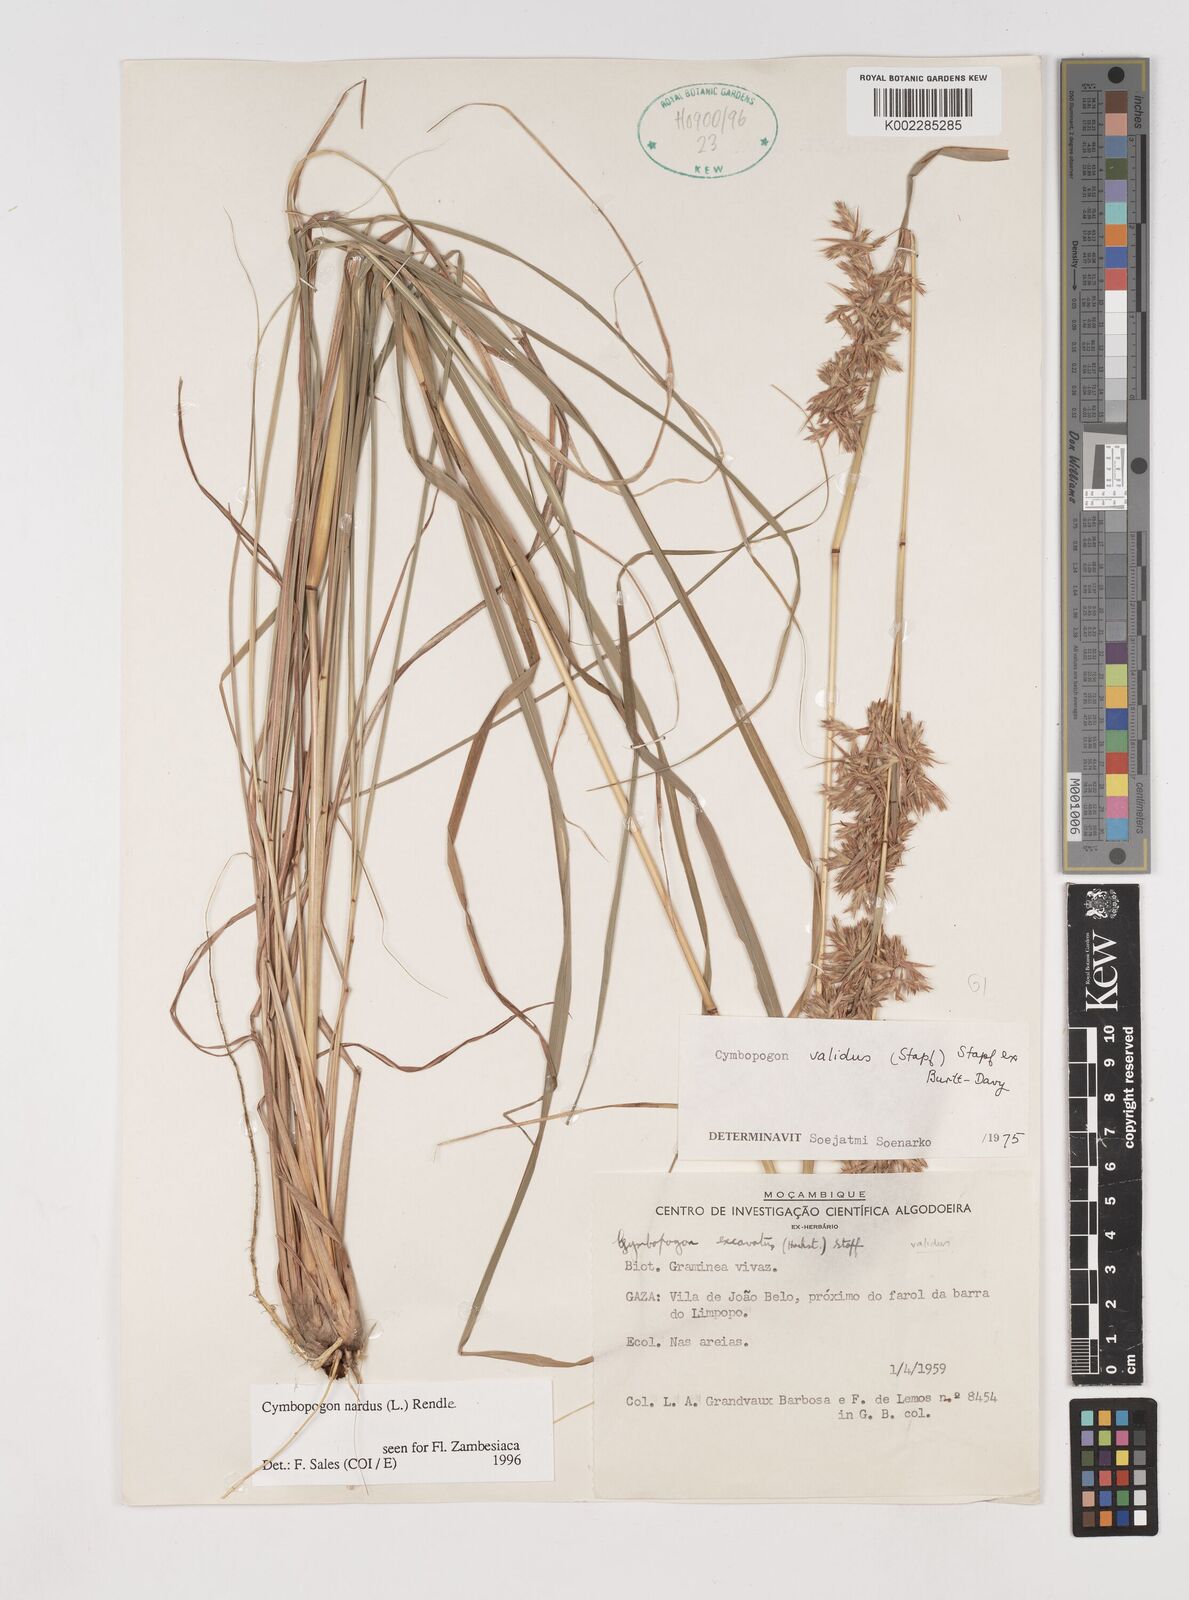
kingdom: Plantae
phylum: Tracheophyta
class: Liliopsida
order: Poales
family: Poaceae
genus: Cymbopogon
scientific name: Cymbopogon nardus
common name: Giant turpentine grass
